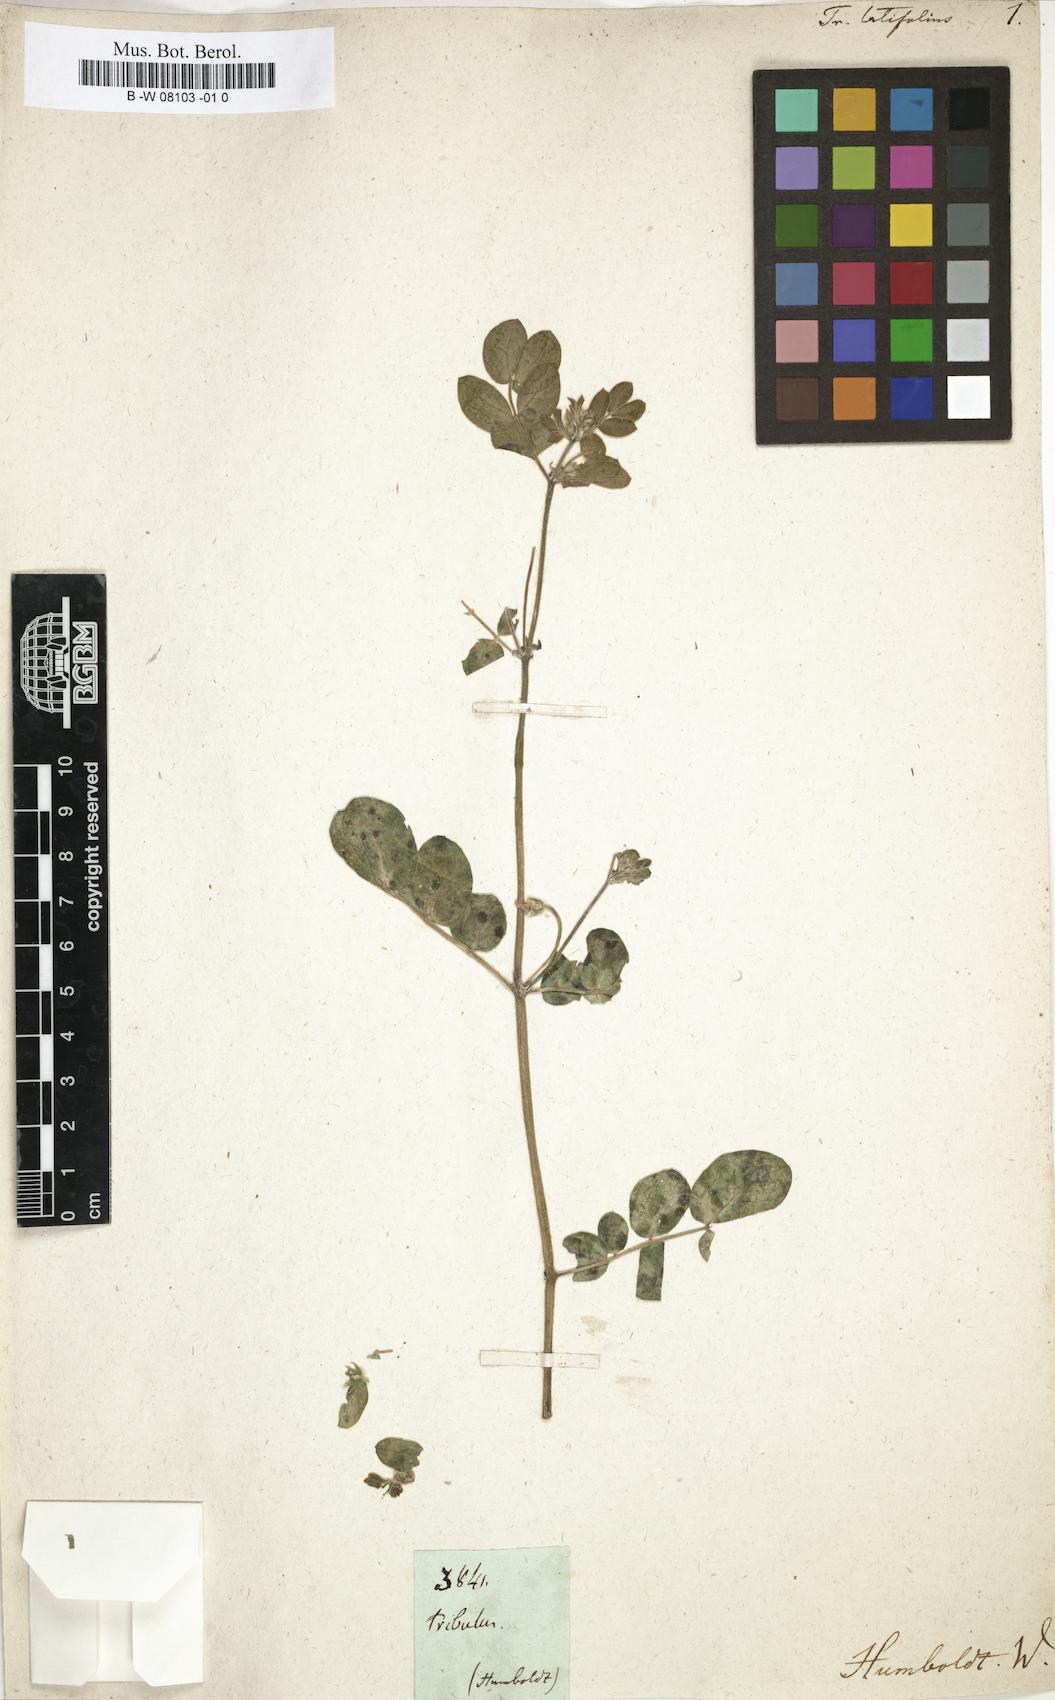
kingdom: Plantae
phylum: Tracheophyta
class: Magnoliopsida
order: Zygophyllales
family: Zygophyllaceae
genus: Tribulus
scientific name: Tribulus
